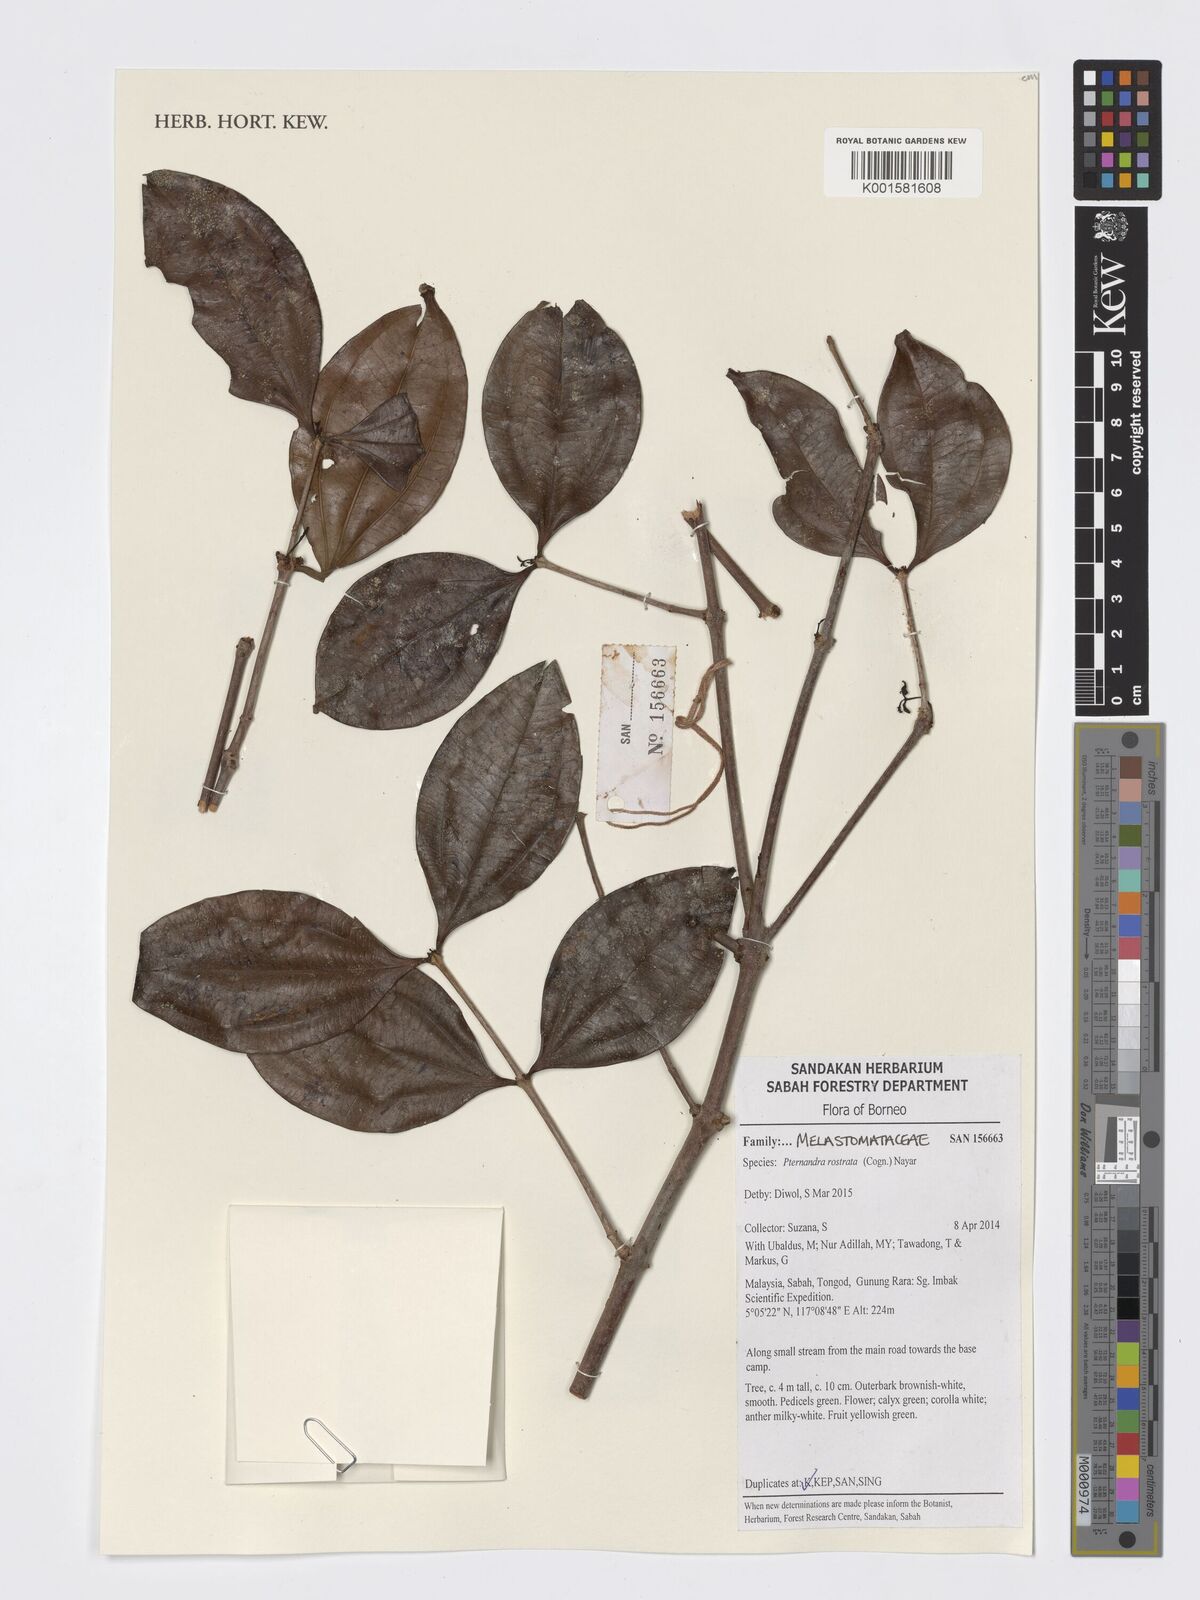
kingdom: Plantae
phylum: Tracheophyta
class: Magnoliopsida
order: Myrtales
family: Melastomataceae
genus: Pternandra
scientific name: Pternandra rostrata
